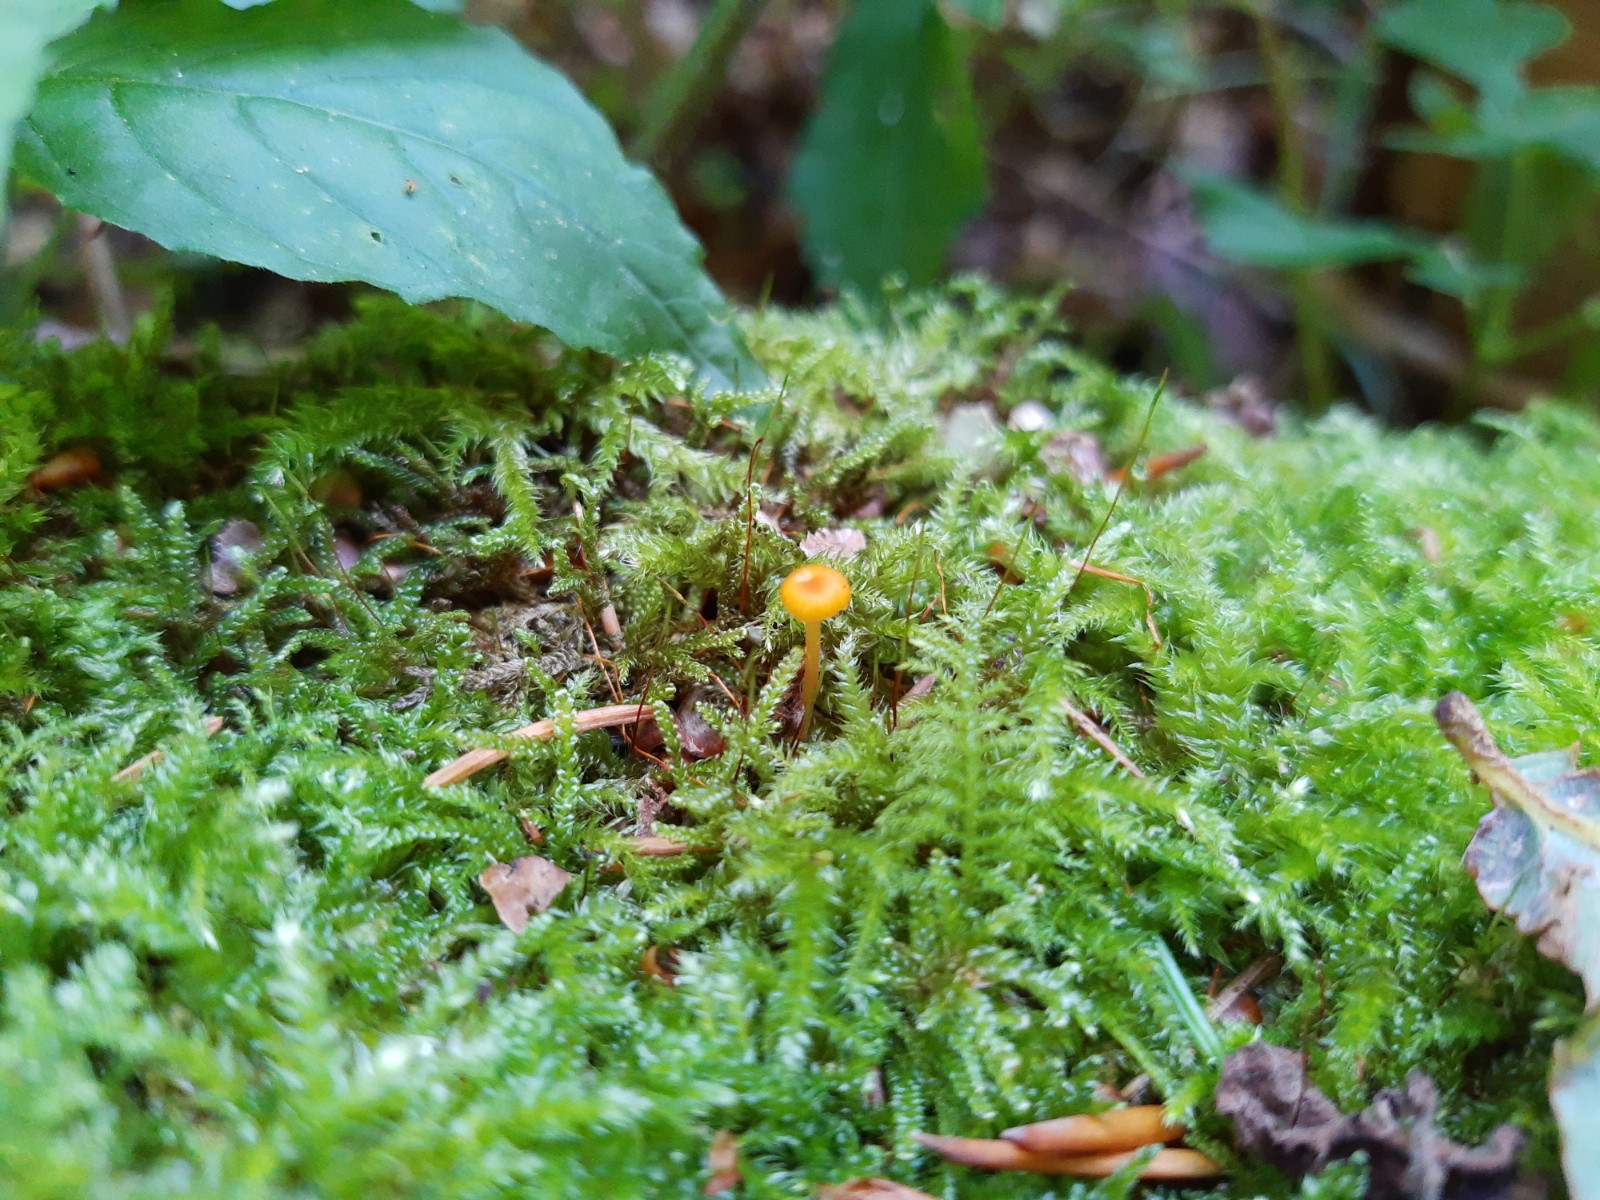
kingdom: Fungi
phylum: Basidiomycota
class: Agaricomycetes
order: Hymenochaetales
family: Rickenellaceae
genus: Rickenella
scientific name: Rickenella fibula
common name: orange mosnavlehat
